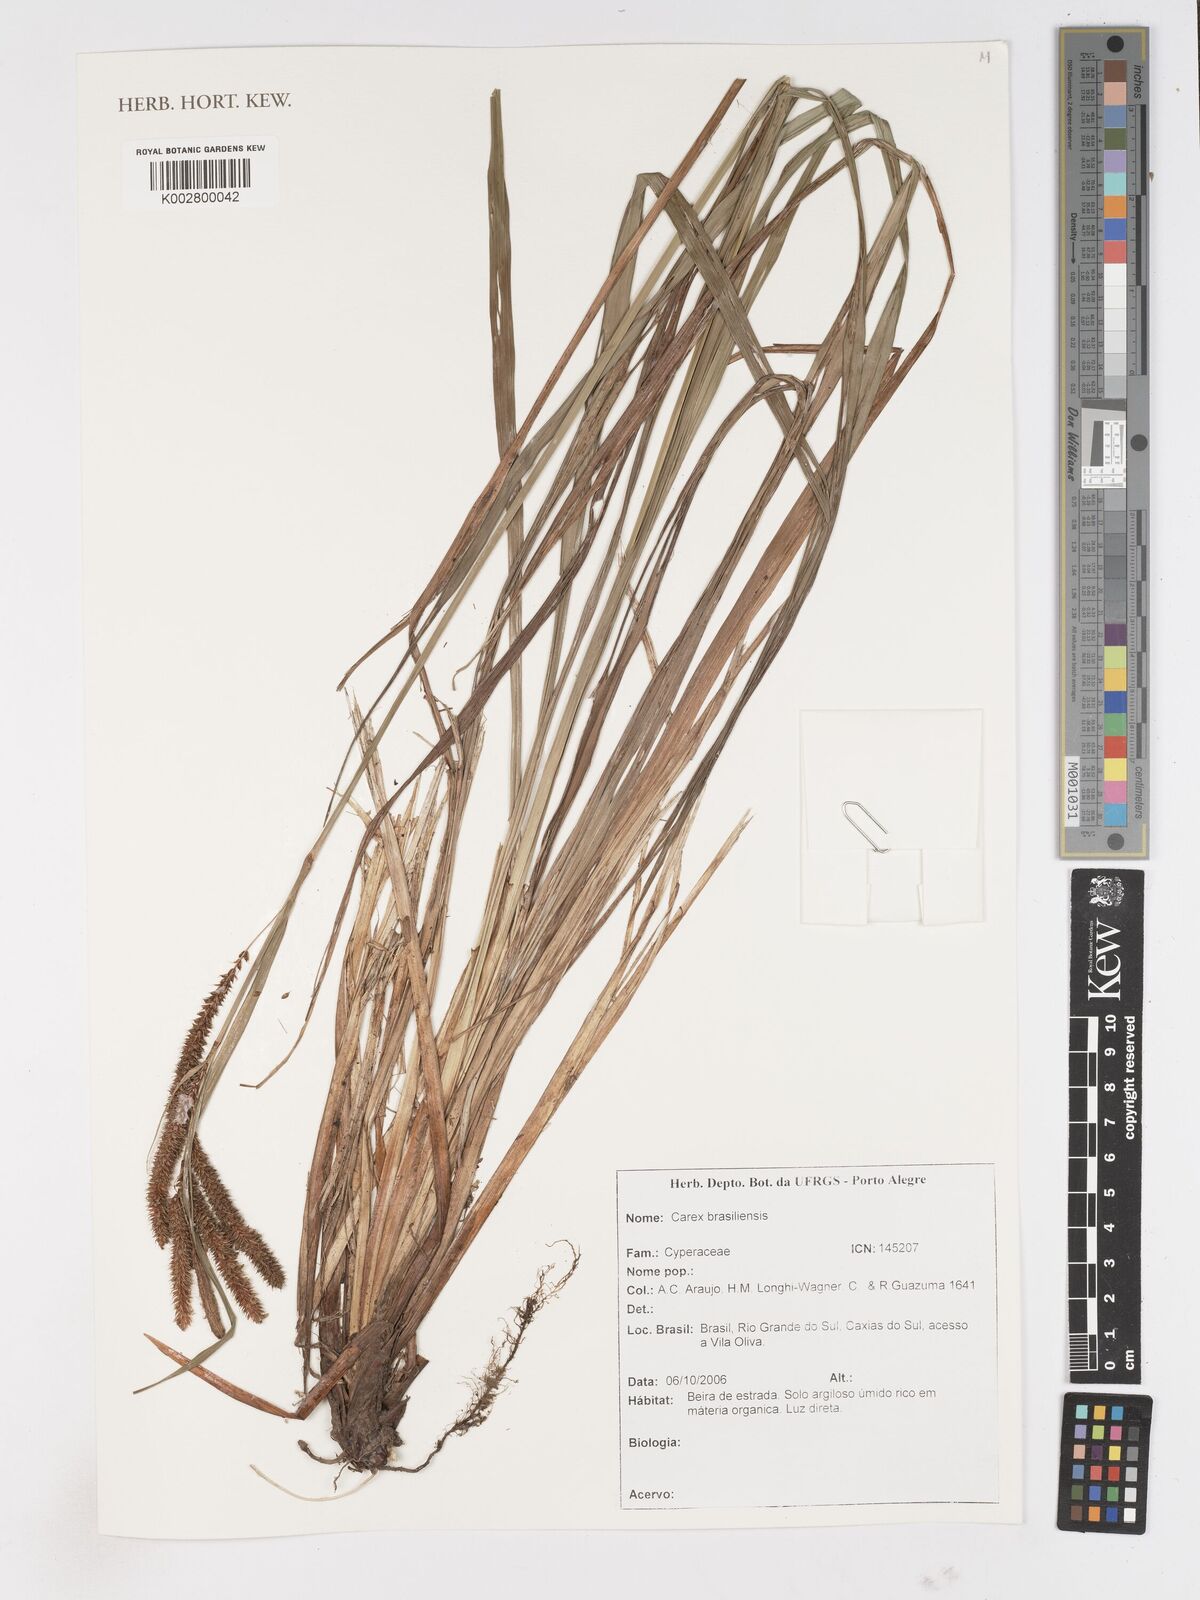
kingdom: Plantae
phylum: Tracheophyta
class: Liliopsida
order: Poales
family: Cyperaceae
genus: Carex
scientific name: Carex brasiliensis
